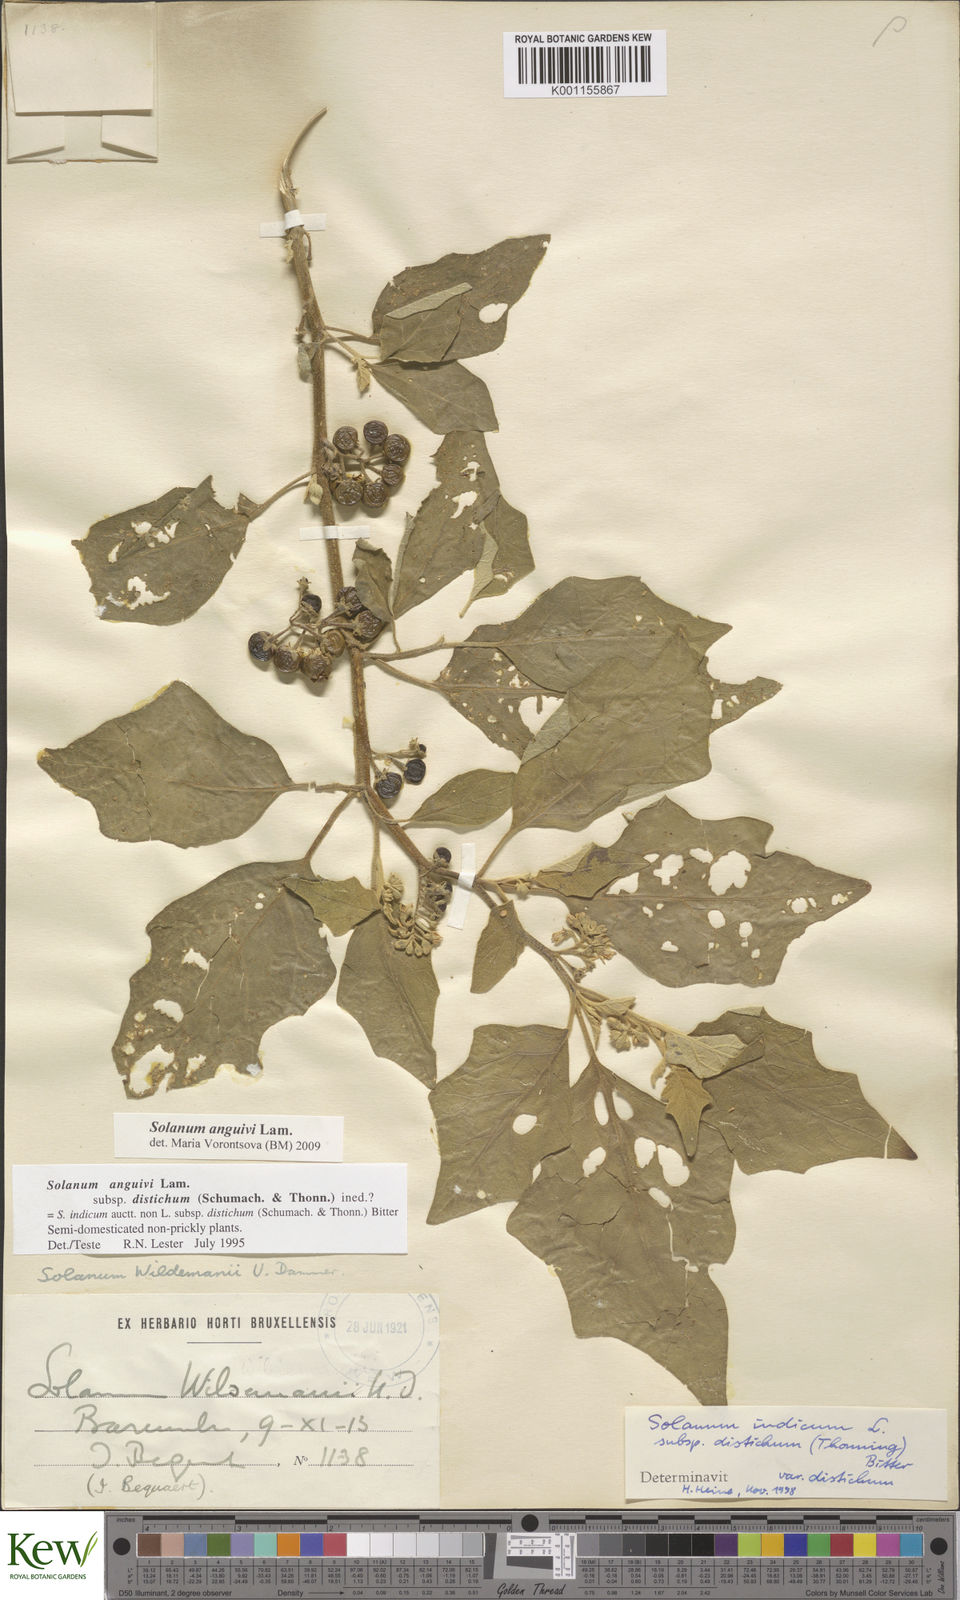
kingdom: Plantae
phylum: Tracheophyta
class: Magnoliopsida
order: Solanales
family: Solanaceae
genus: Solanum
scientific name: Solanum anguivi
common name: Forest bitterberry
